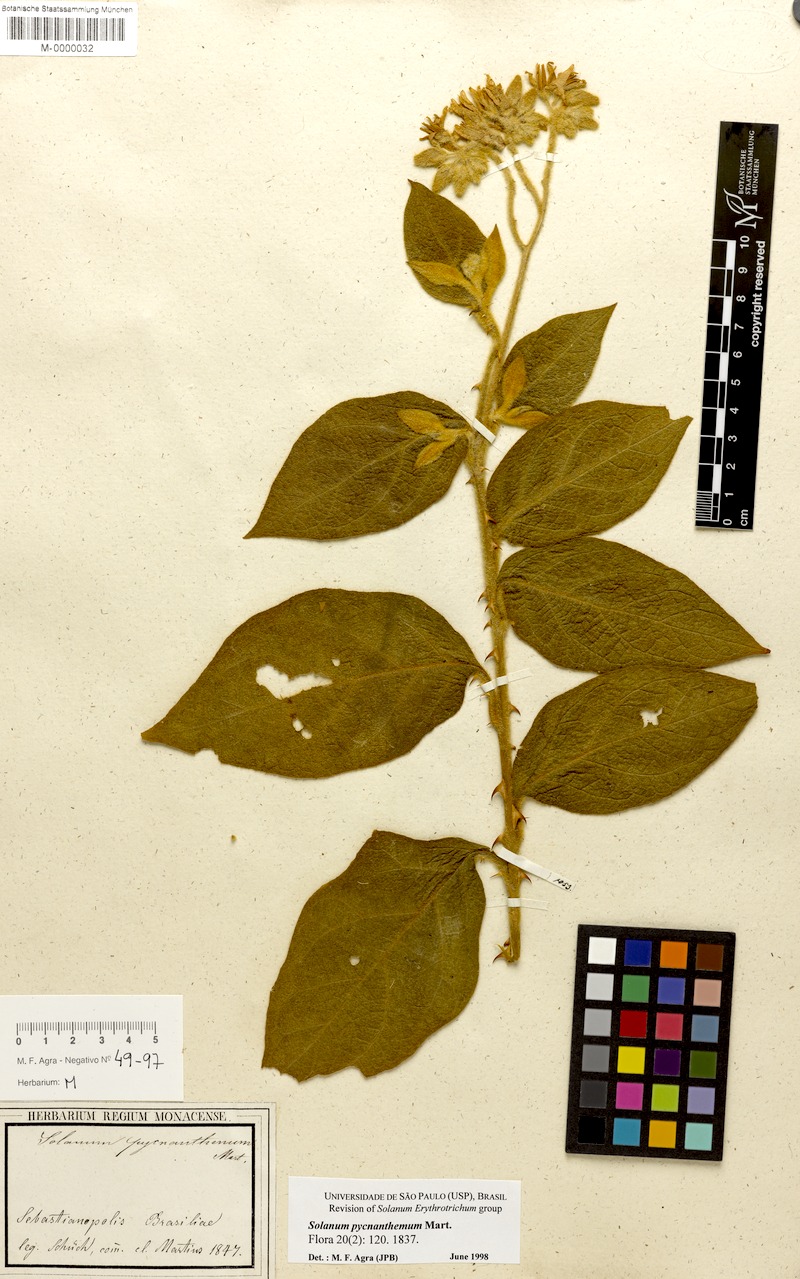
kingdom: Plantae
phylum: Tracheophyta
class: Magnoliopsida
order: Solanales
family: Solanaceae
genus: Solanum
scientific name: Solanum pycnanthemum
